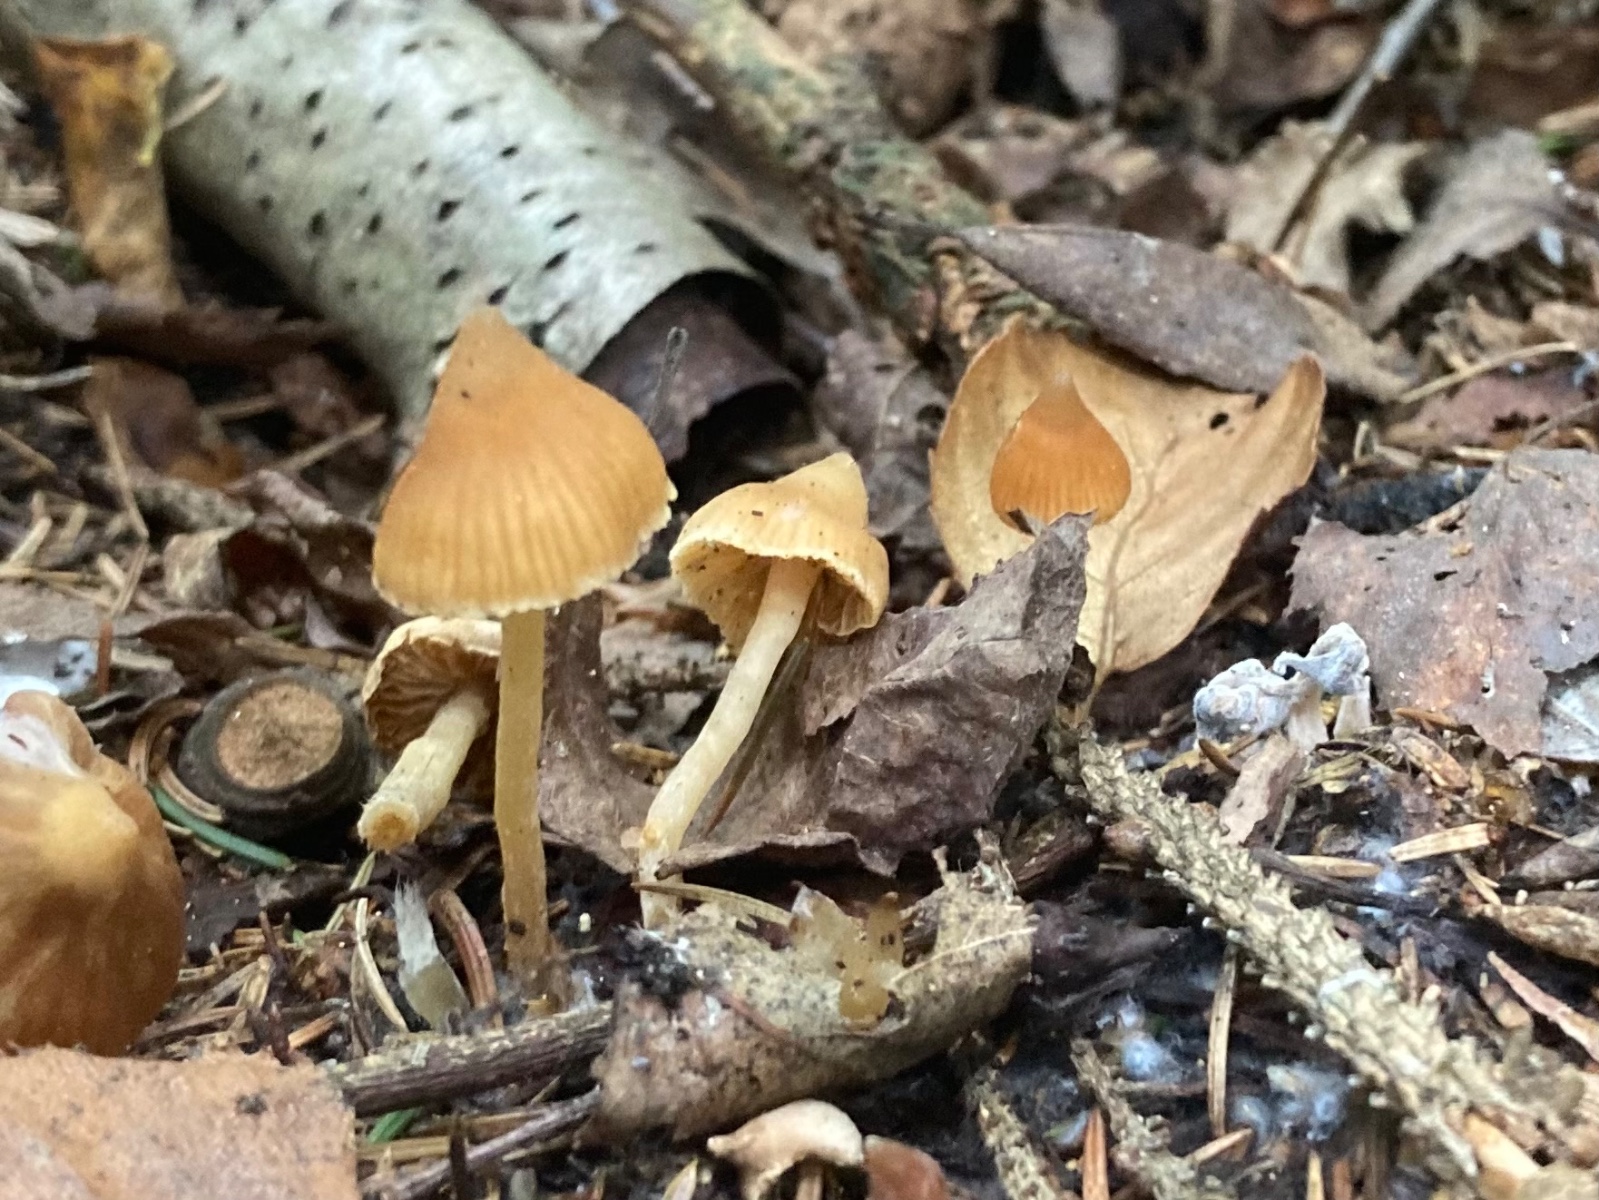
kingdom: Fungi
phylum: Basidiomycota
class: Agaricomycetes
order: Agaricales
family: Cortinariaceae
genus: Cortinarius
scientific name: Cortinarius acutus
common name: spids slørhat
